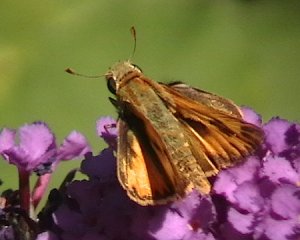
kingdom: Animalia
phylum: Arthropoda
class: Insecta
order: Lepidoptera
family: Hesperiidae
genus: Hylephila
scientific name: Hylephila phyleus
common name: Fiery Skipper
